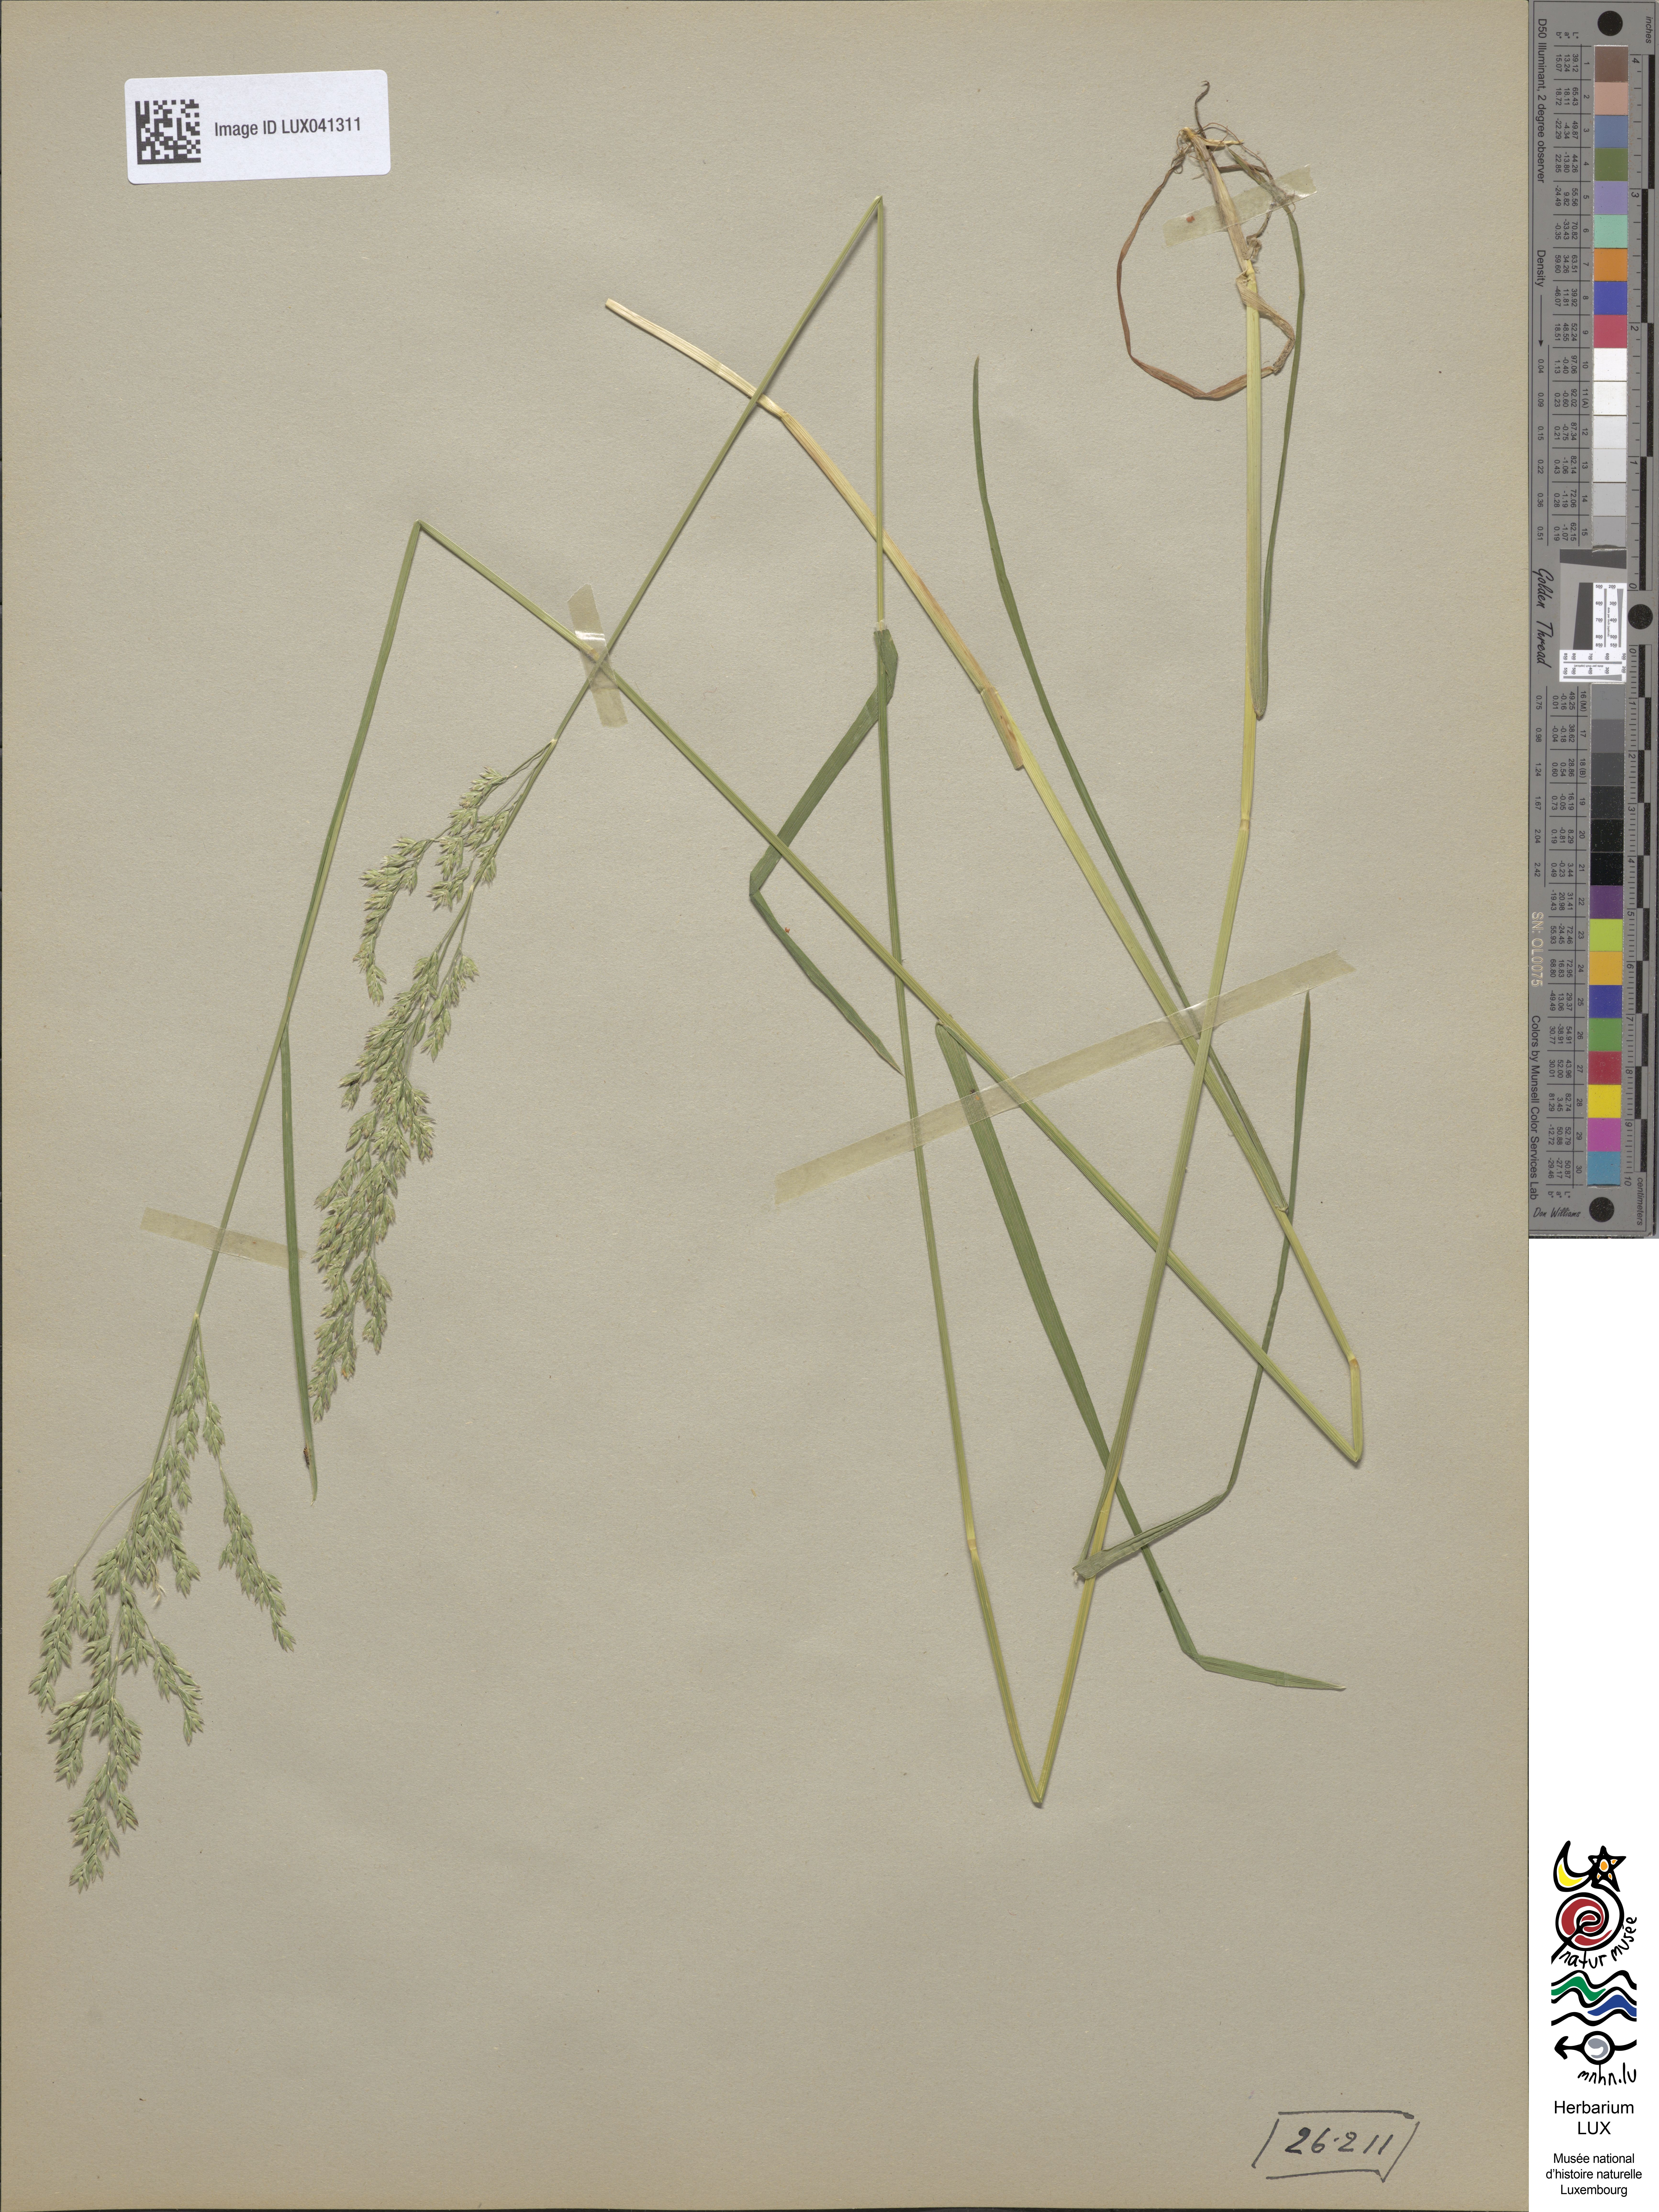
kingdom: Plantae
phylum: Tracheophyta
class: Liliopsida
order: Poales
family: Poaceae
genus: Poa
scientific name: Poa humilis
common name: Spreading meadow-grass
